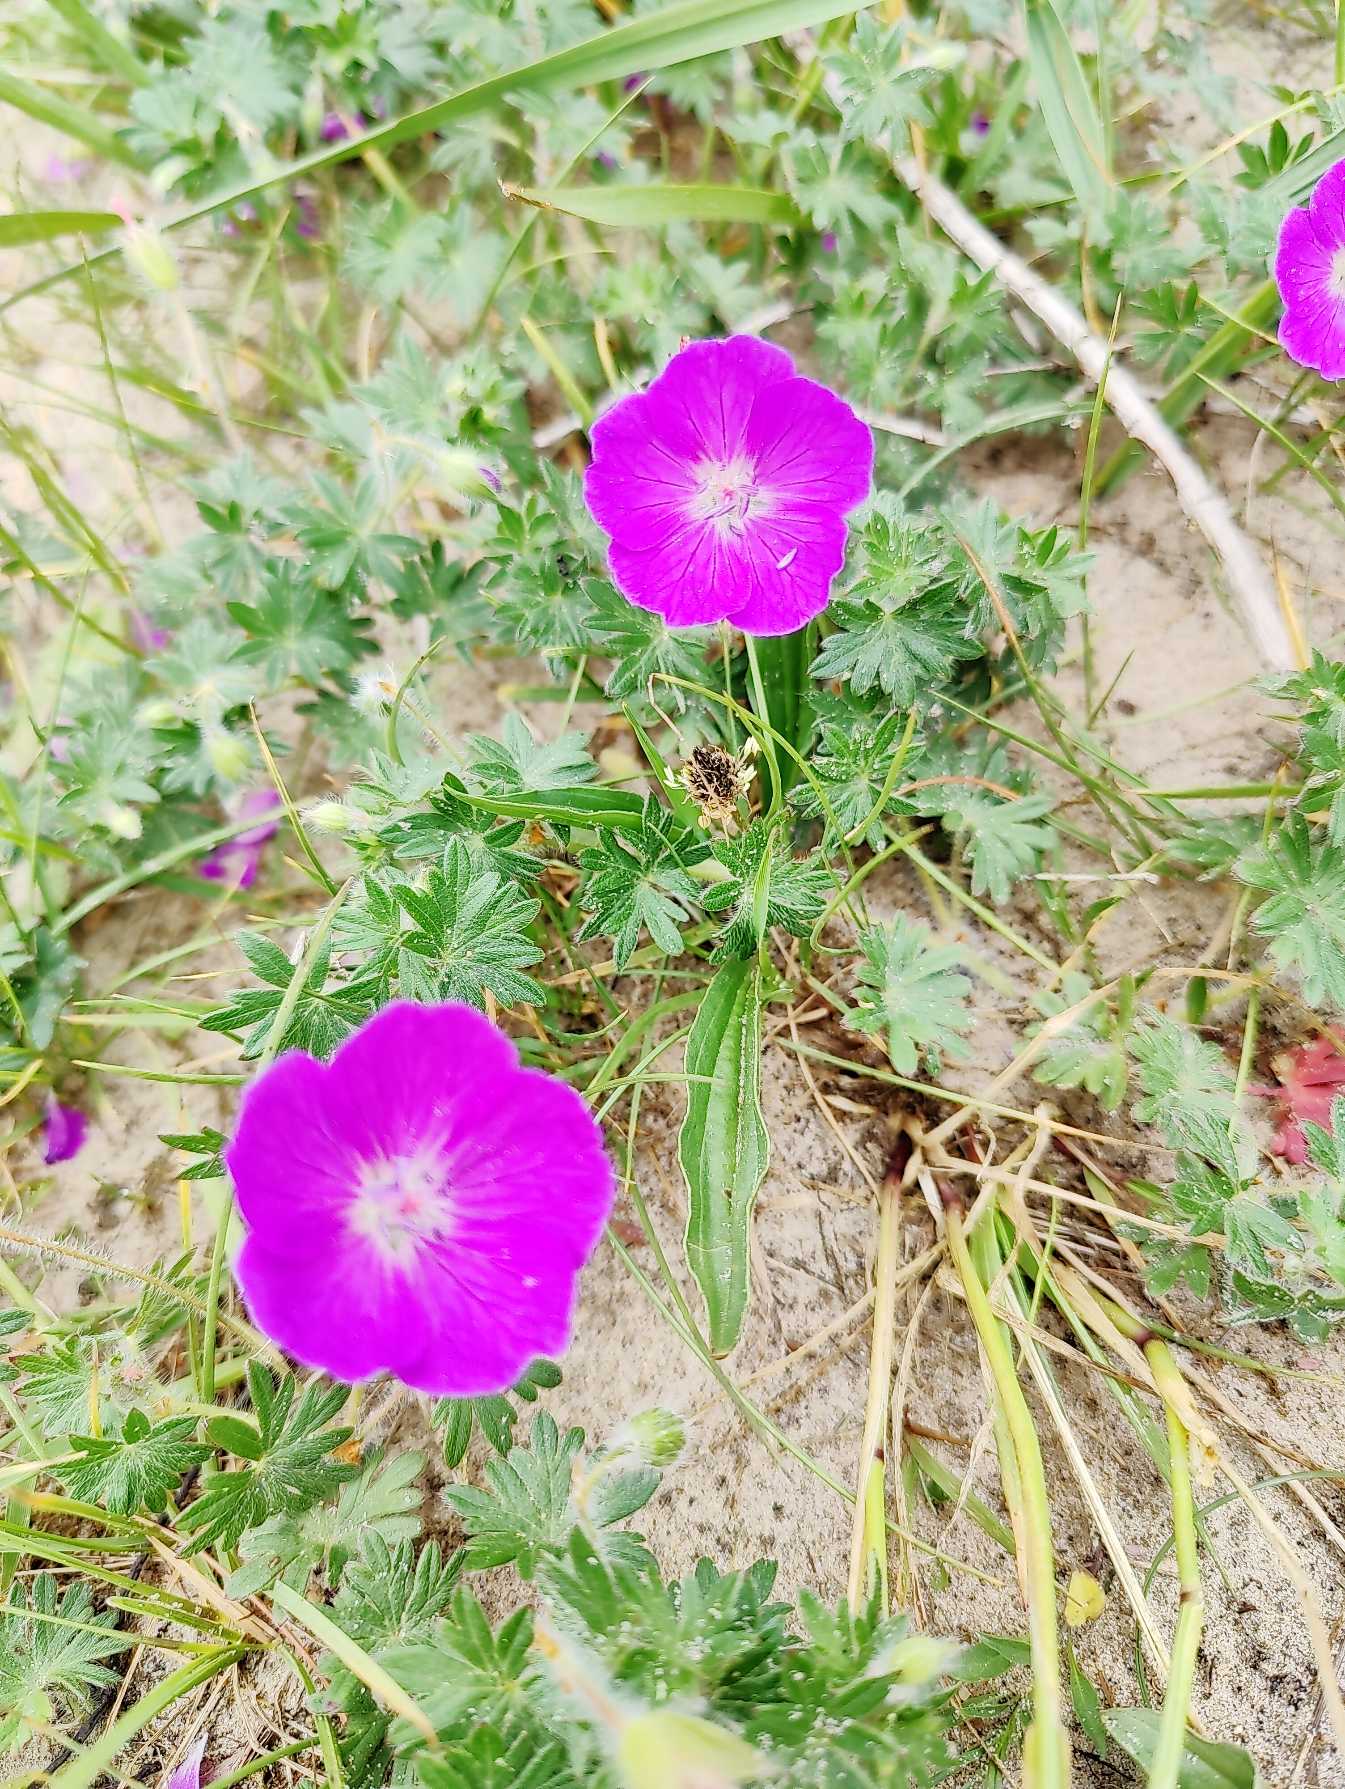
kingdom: Plantae
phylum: Tracheophyta
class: Magnoliopsida
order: Geraniales
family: Geraniaceae
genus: Geranium
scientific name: Geranium sanguineum
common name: Blodrød storkenæb
